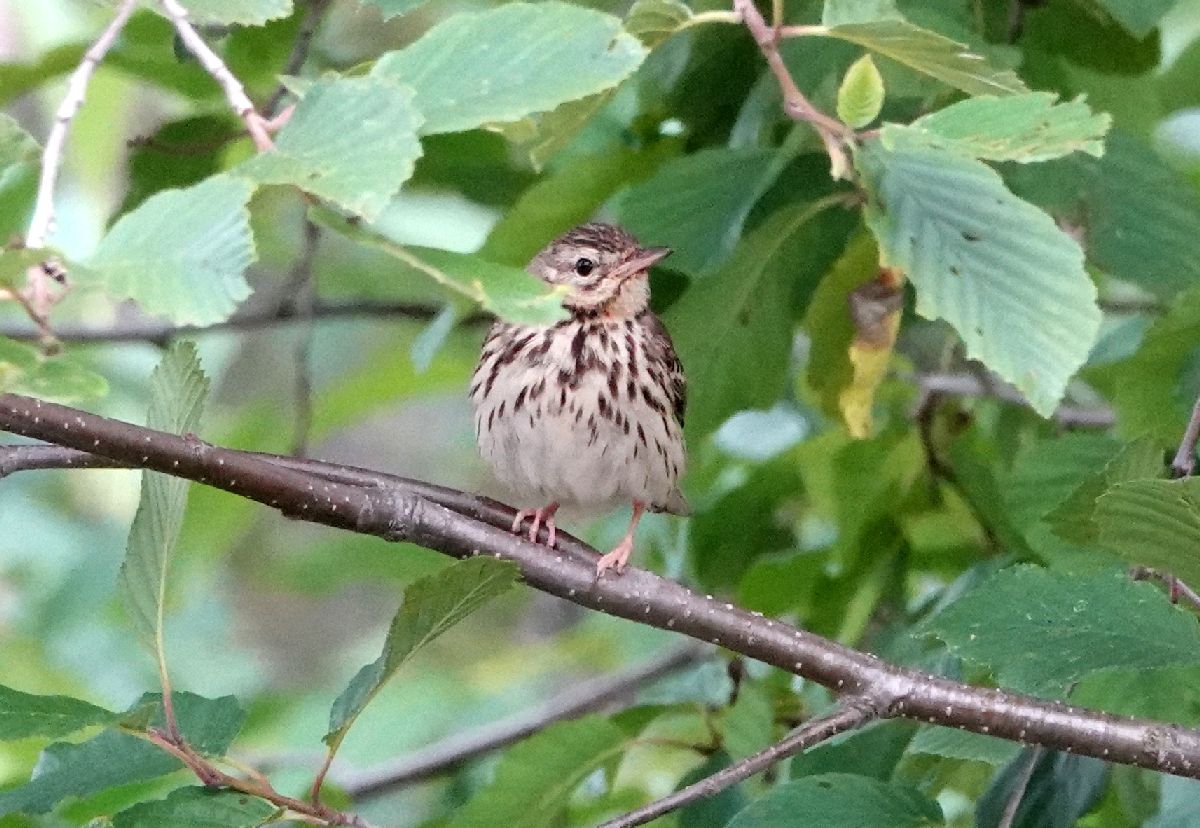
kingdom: Animalia
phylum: Chordata
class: Aves
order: Passeriformes
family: Motacillidae
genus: Anthus
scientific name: Anthus trivialis
